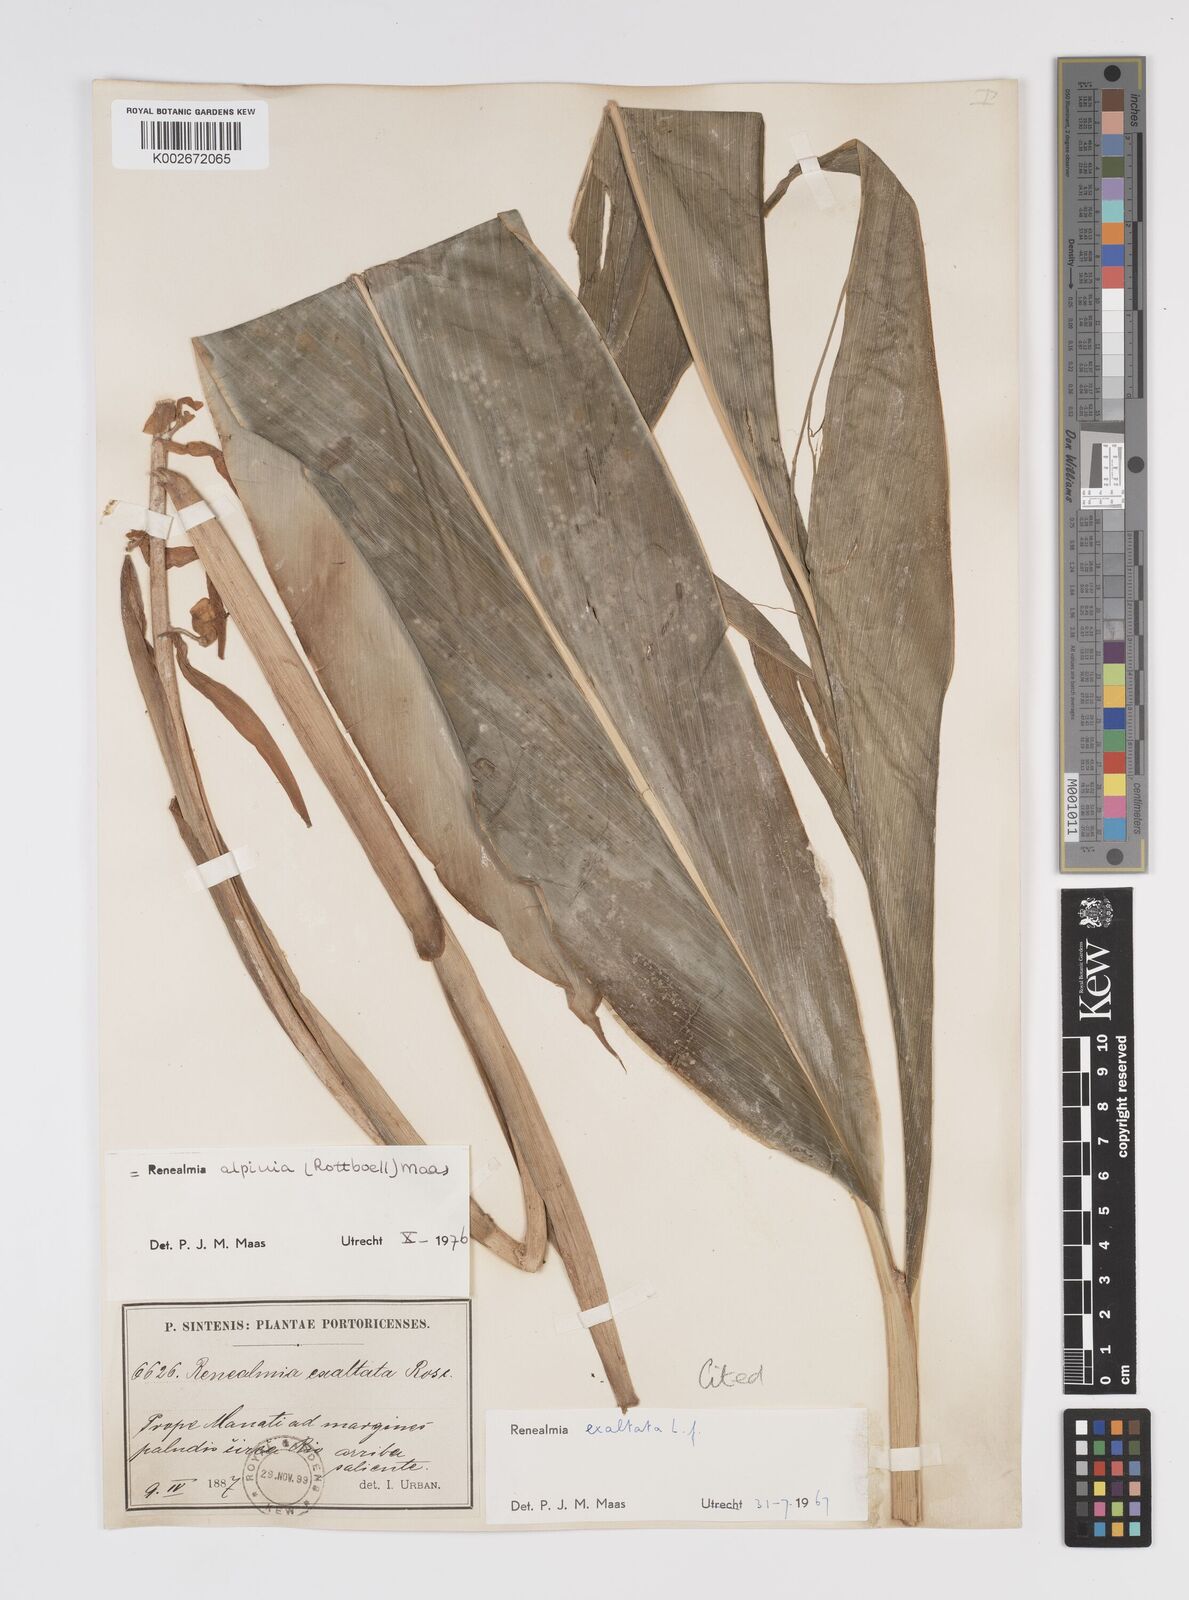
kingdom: Plantae
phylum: Tracheophyta
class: Liliopsida
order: Zingiberales
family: Zingiberaceae
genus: Renealmia
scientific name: Renealmia alpinia
